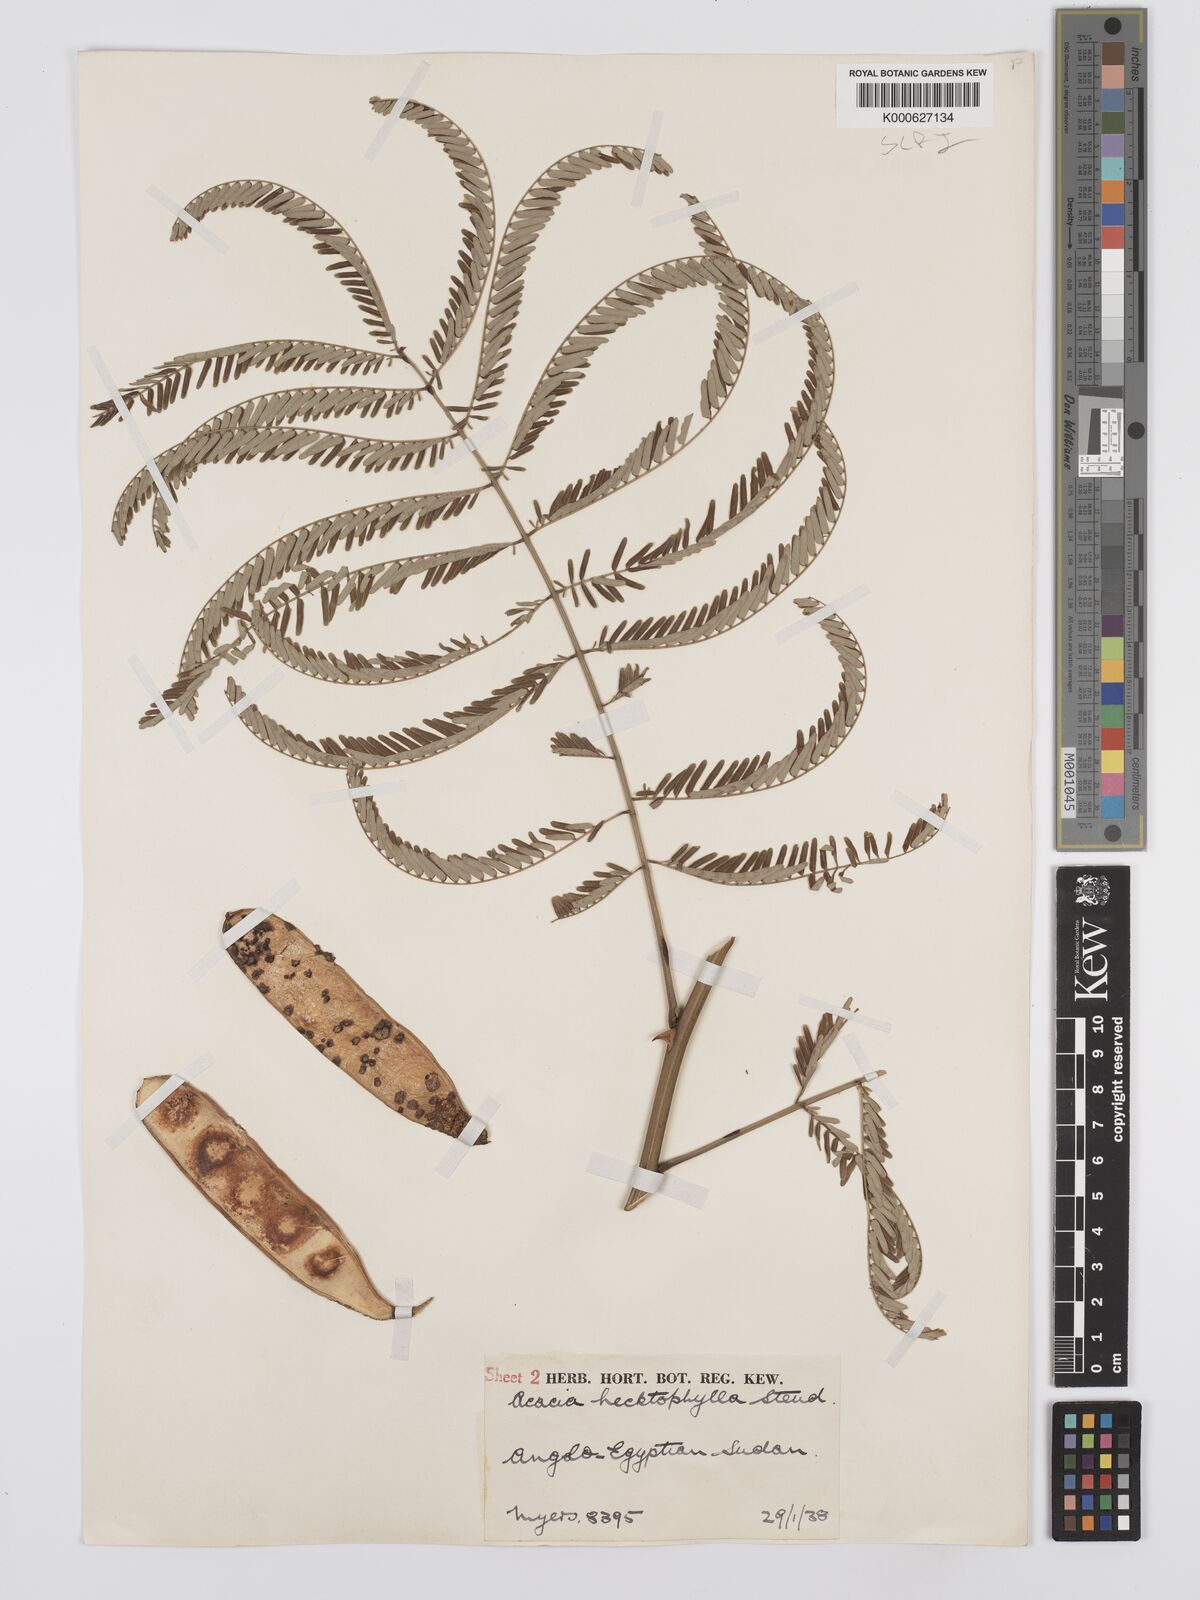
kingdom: Plantae
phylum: Tracheophyta
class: Magnoliopsida
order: Fabales
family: Fabaceae
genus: Senegalia
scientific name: Senegalia hecatophylla
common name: Long pod
